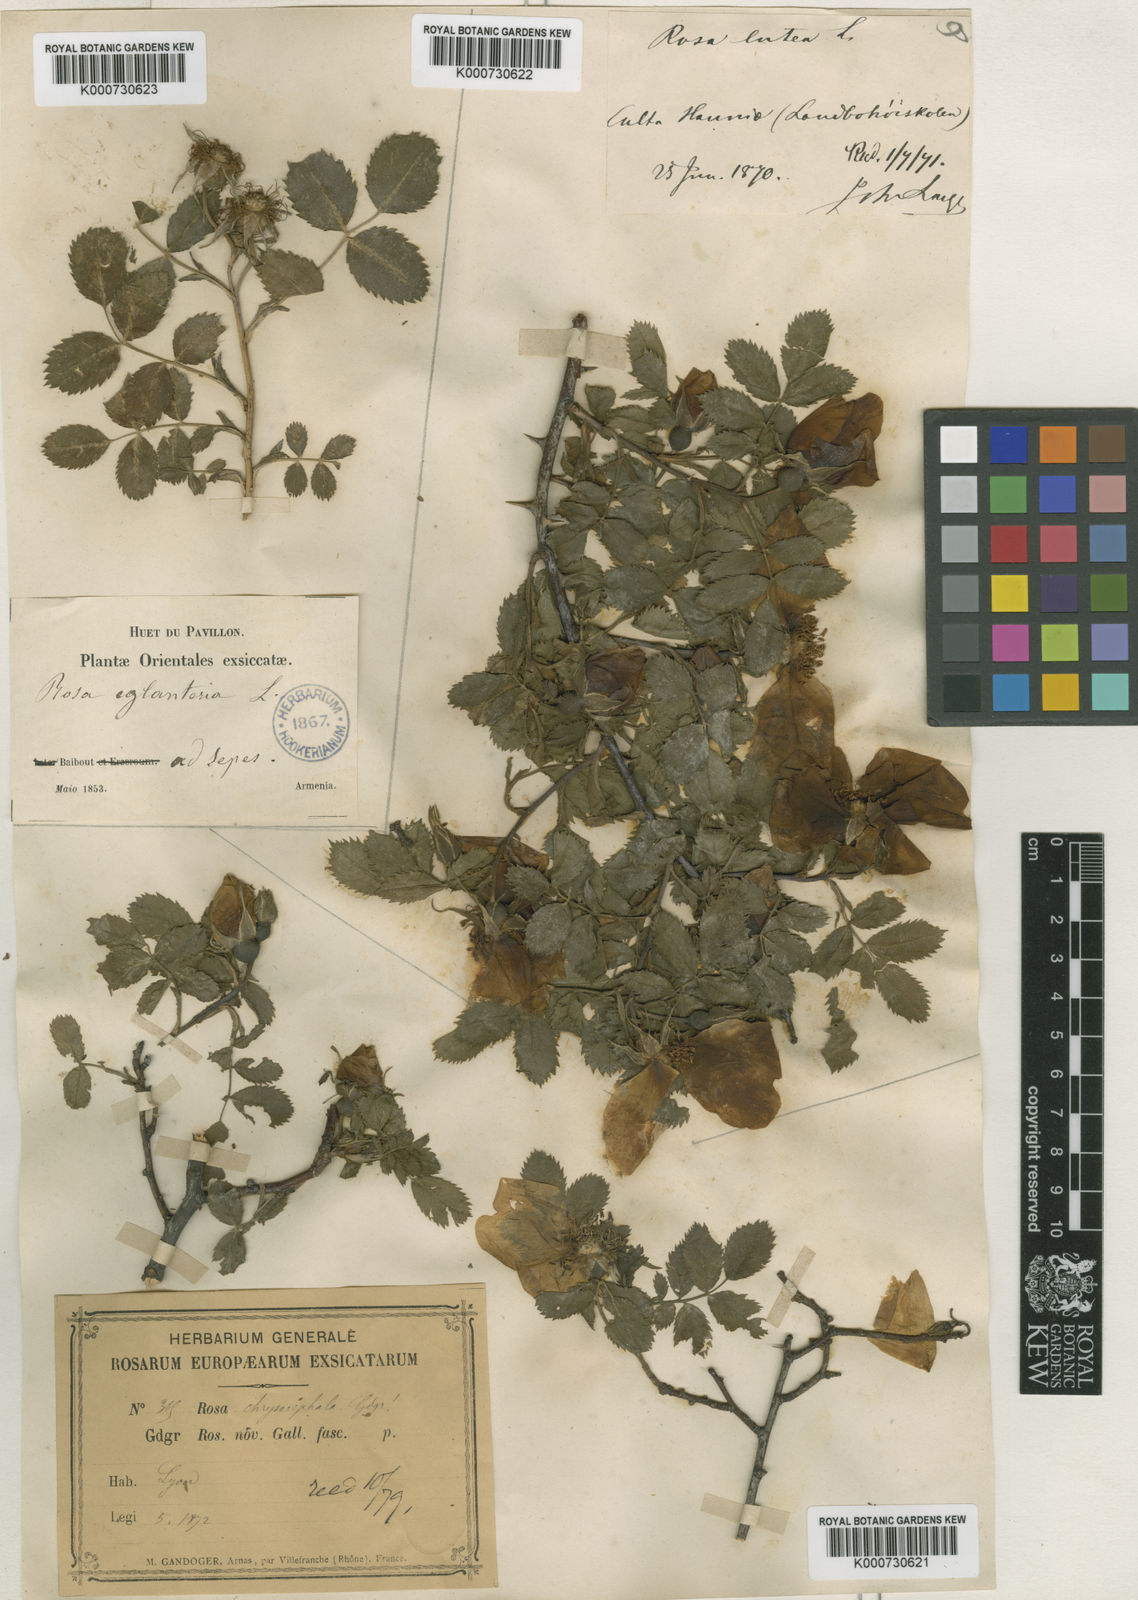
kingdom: Plantae
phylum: Tracheophyta
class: Magnoliopsida
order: Rosales
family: Rosaceae
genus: Rosa
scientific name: Rosa rubiginosa
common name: Sweet-briar
